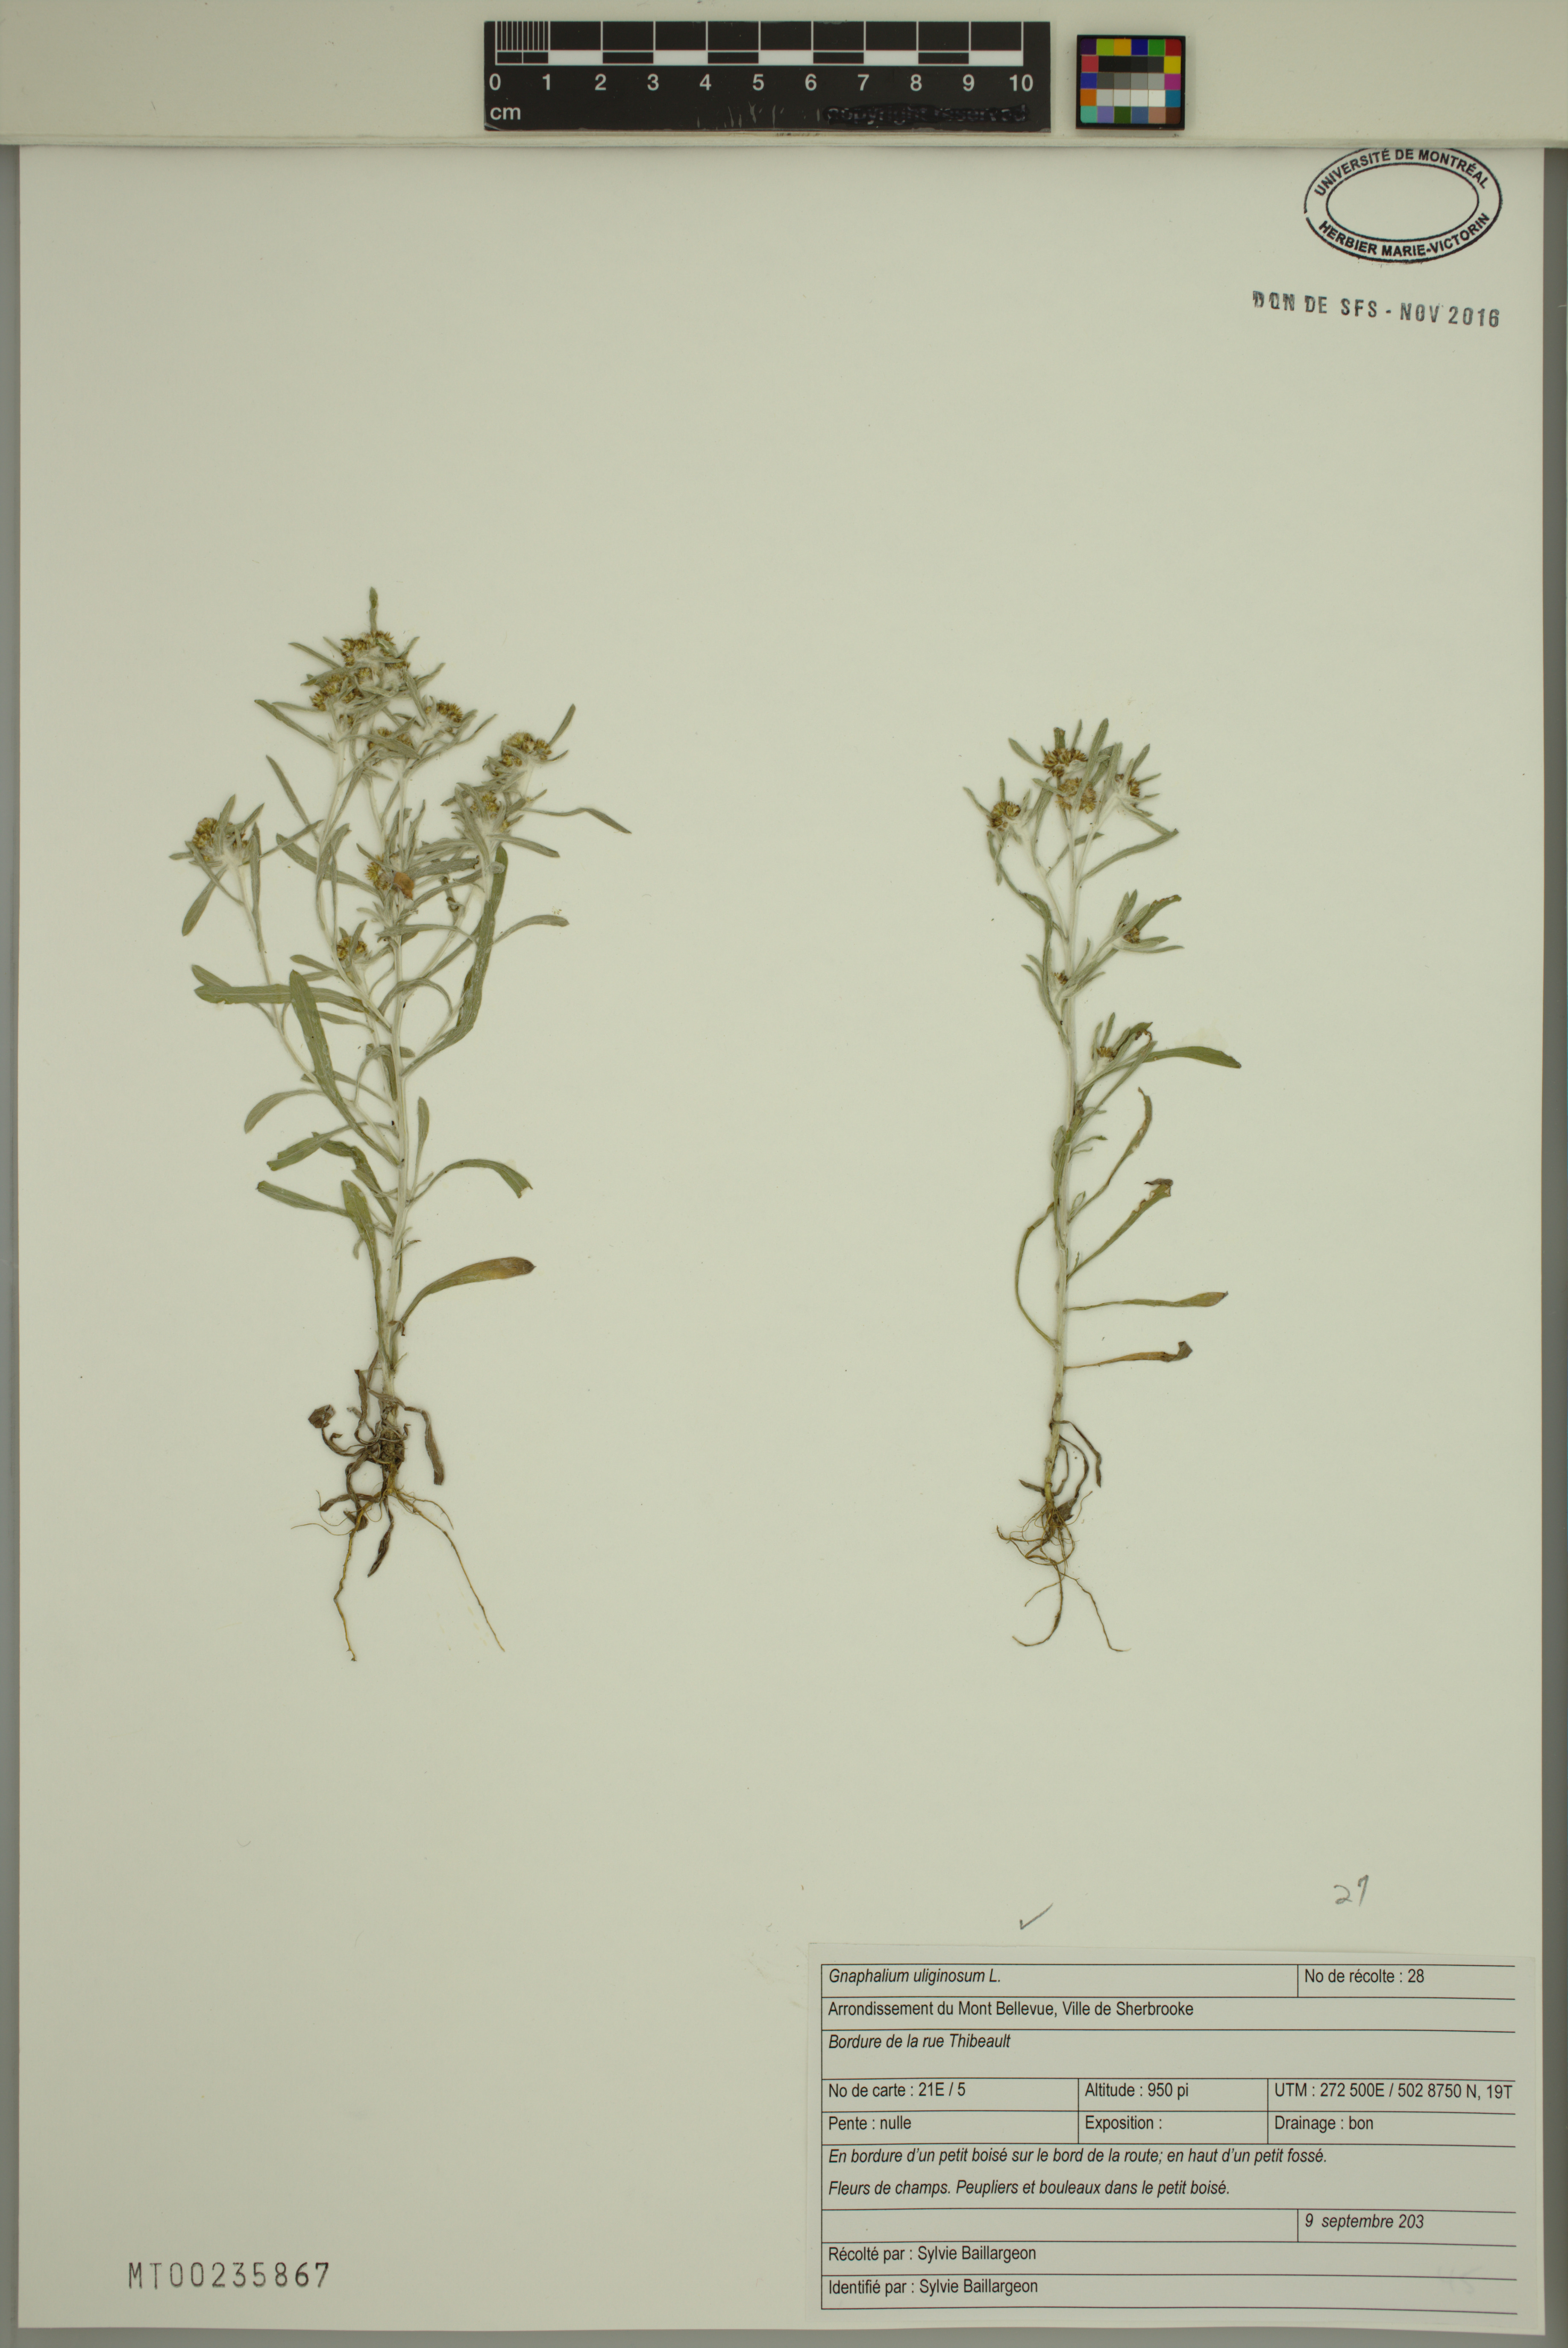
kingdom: Plantae
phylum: Tracheophyta
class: Magnoliopsida
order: Asterales
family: Asteraceae
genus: Gnaphalium
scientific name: Gnaphalium uliginosum
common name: Marsh cudweed
